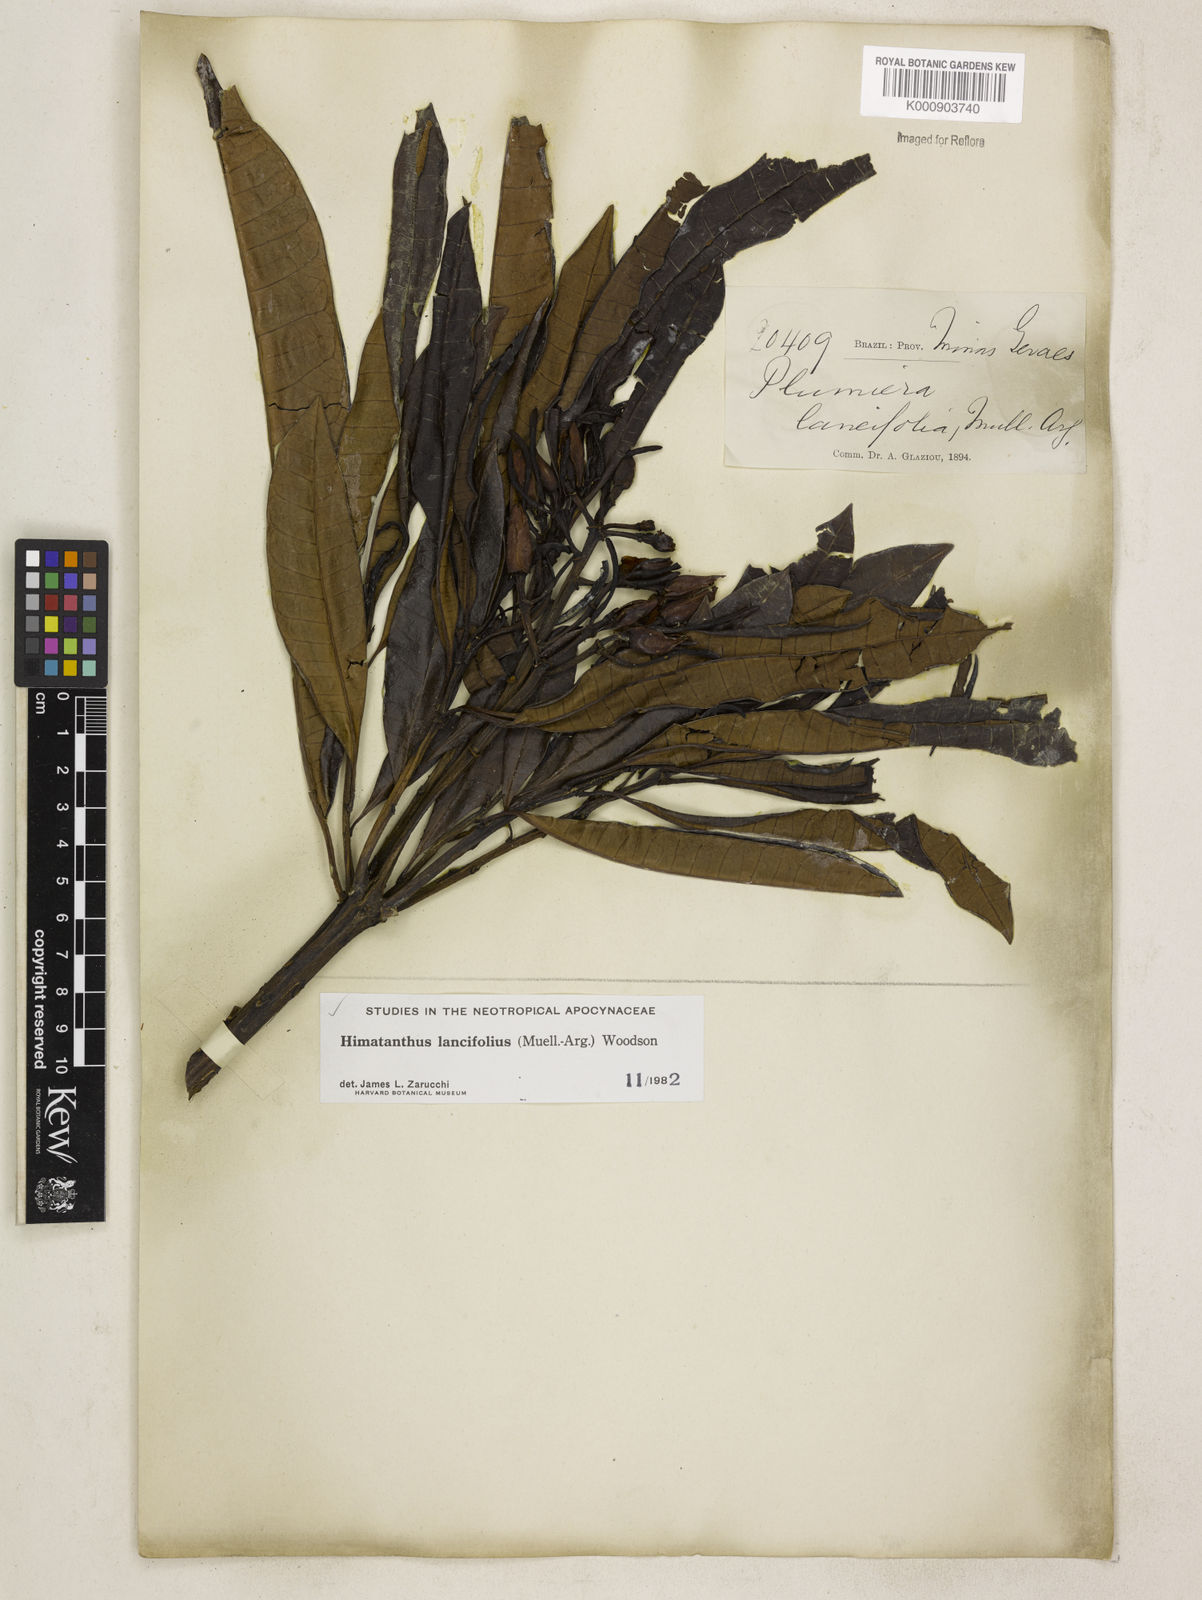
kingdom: Plantae
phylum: Tracheophyta
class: Magnoliopsida
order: Gentianales
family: Apocynaceae
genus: Himatanthus
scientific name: Himatanthus
